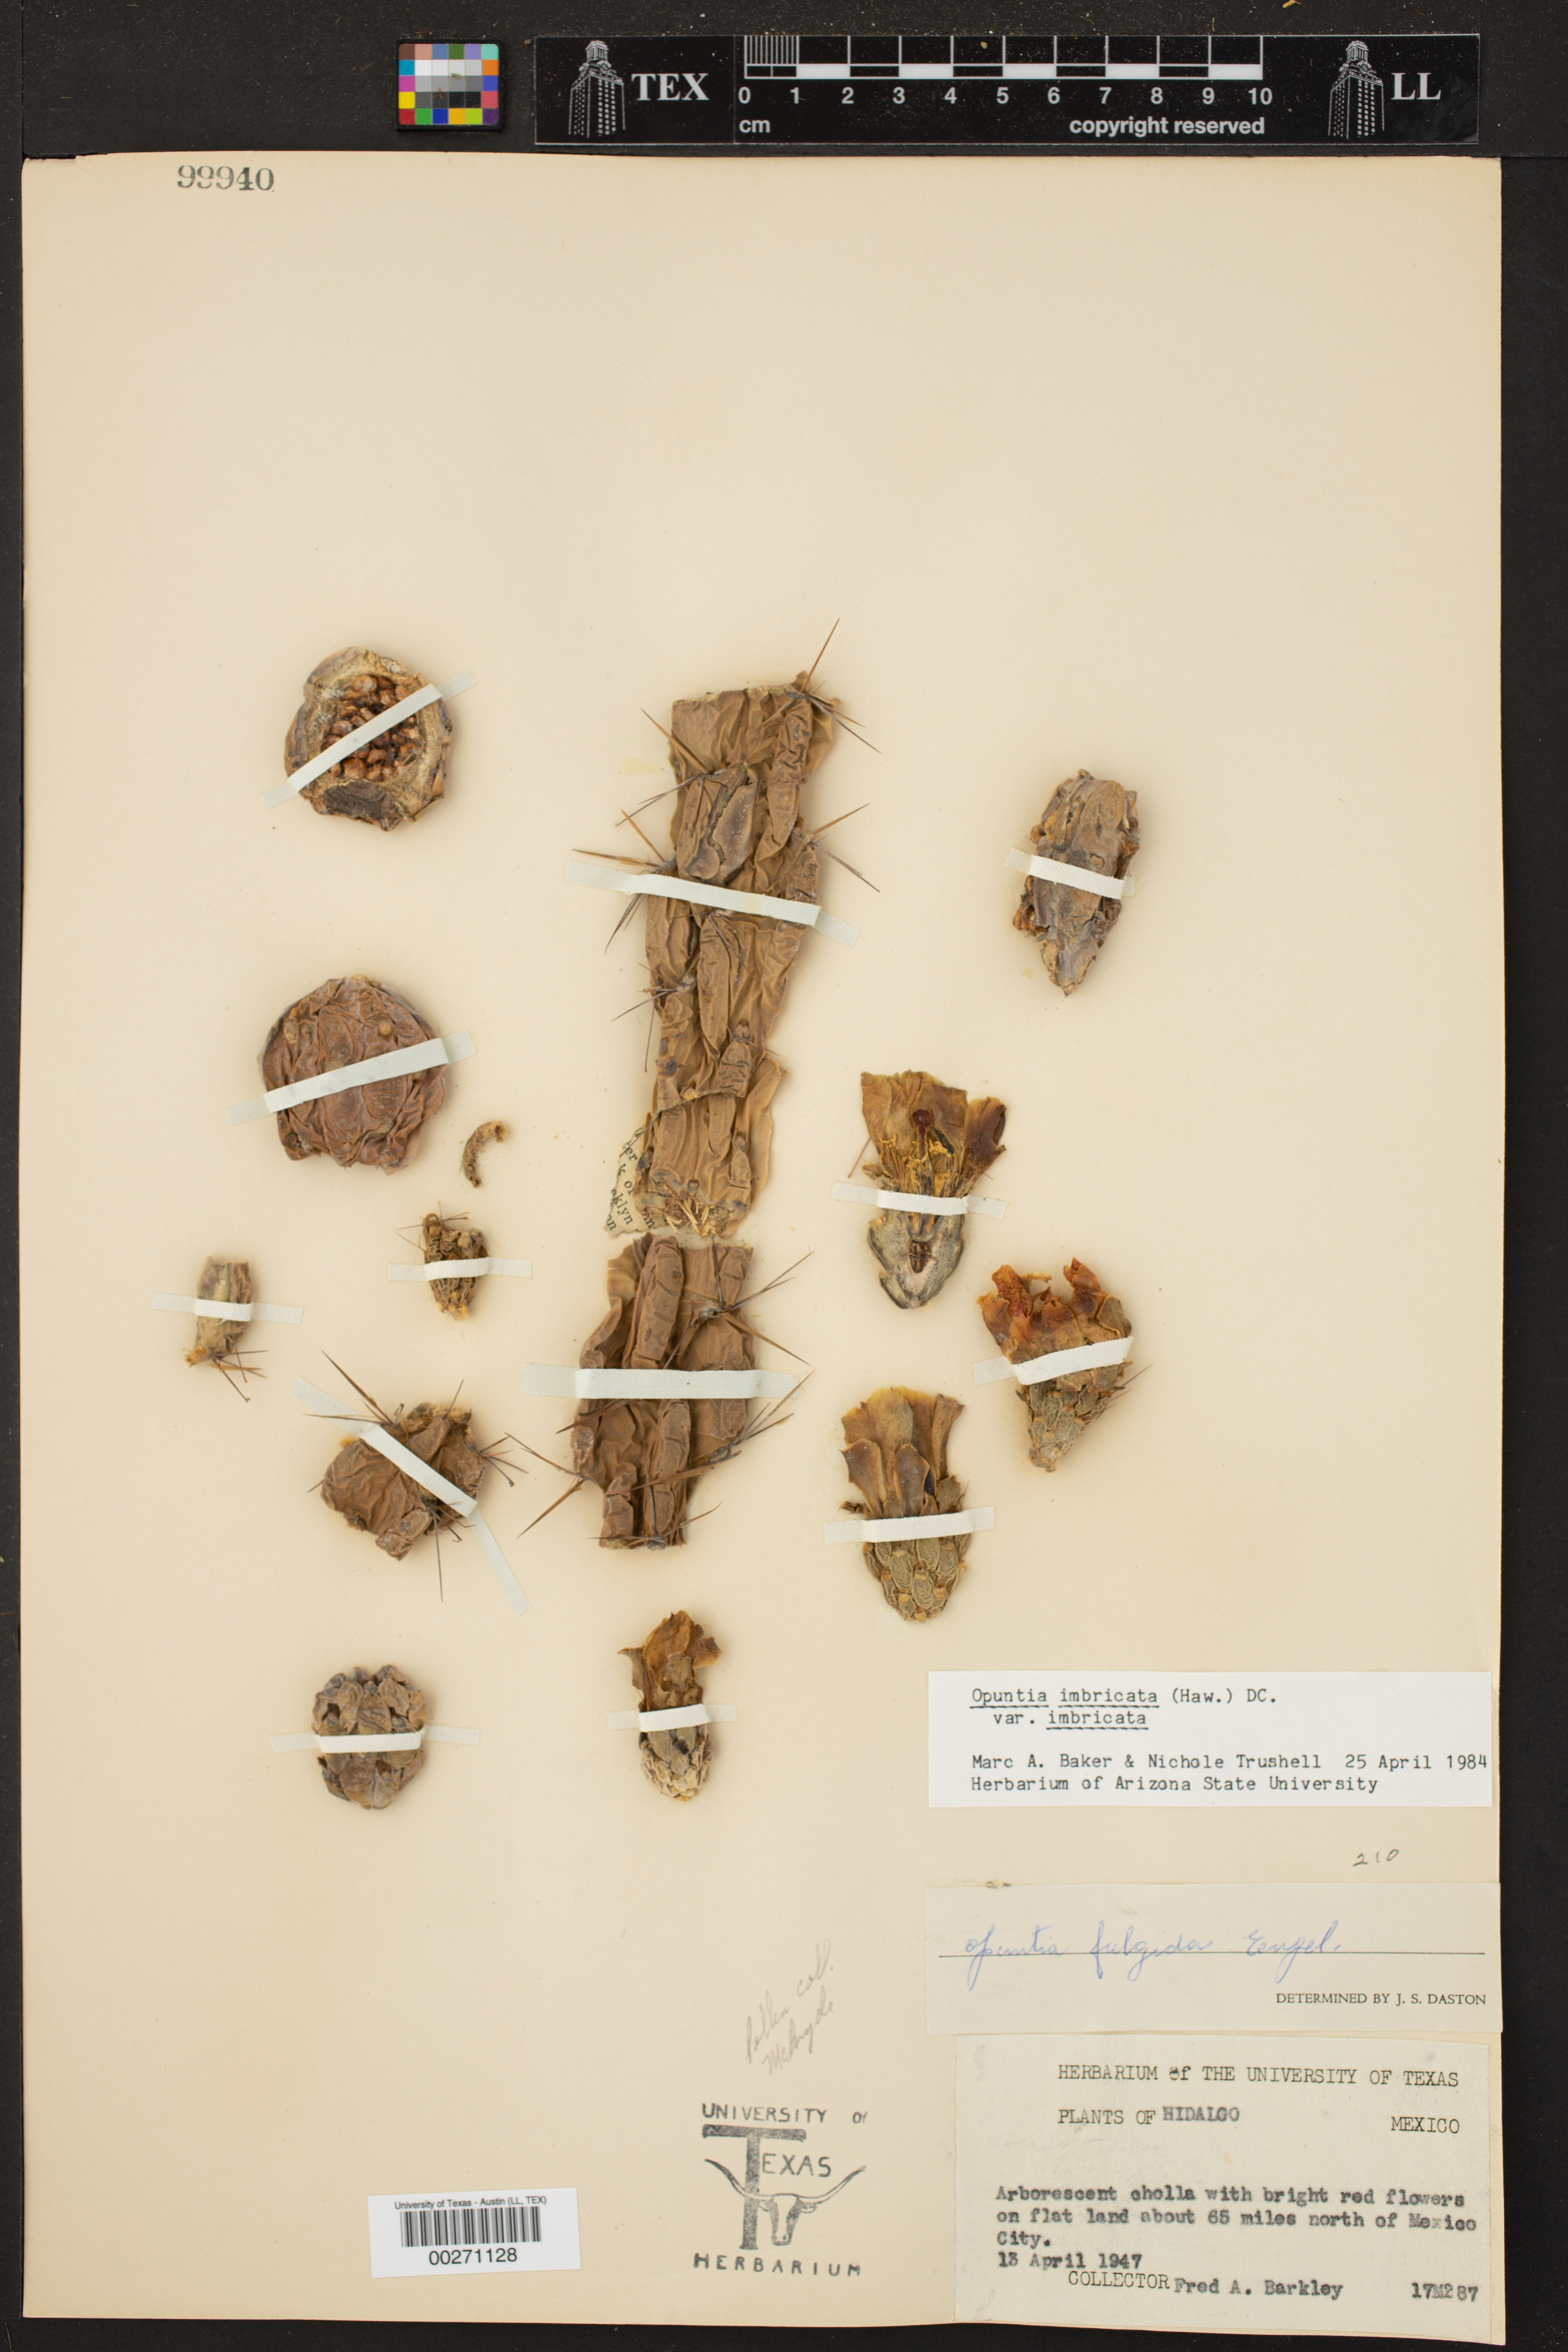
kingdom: Plantae
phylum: Tracheophyta
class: Magnoliopsida
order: Caryophyllales
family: Cactaceae
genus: Cylindropuntia
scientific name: Cylindropuntia
